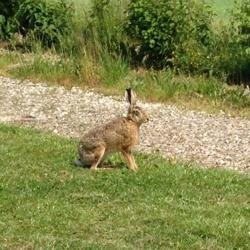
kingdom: Animalia
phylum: Chordata
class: Mammalia
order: Lagomorpha
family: Leporidae
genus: Lepus
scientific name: Lepus europaeus
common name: Hare
